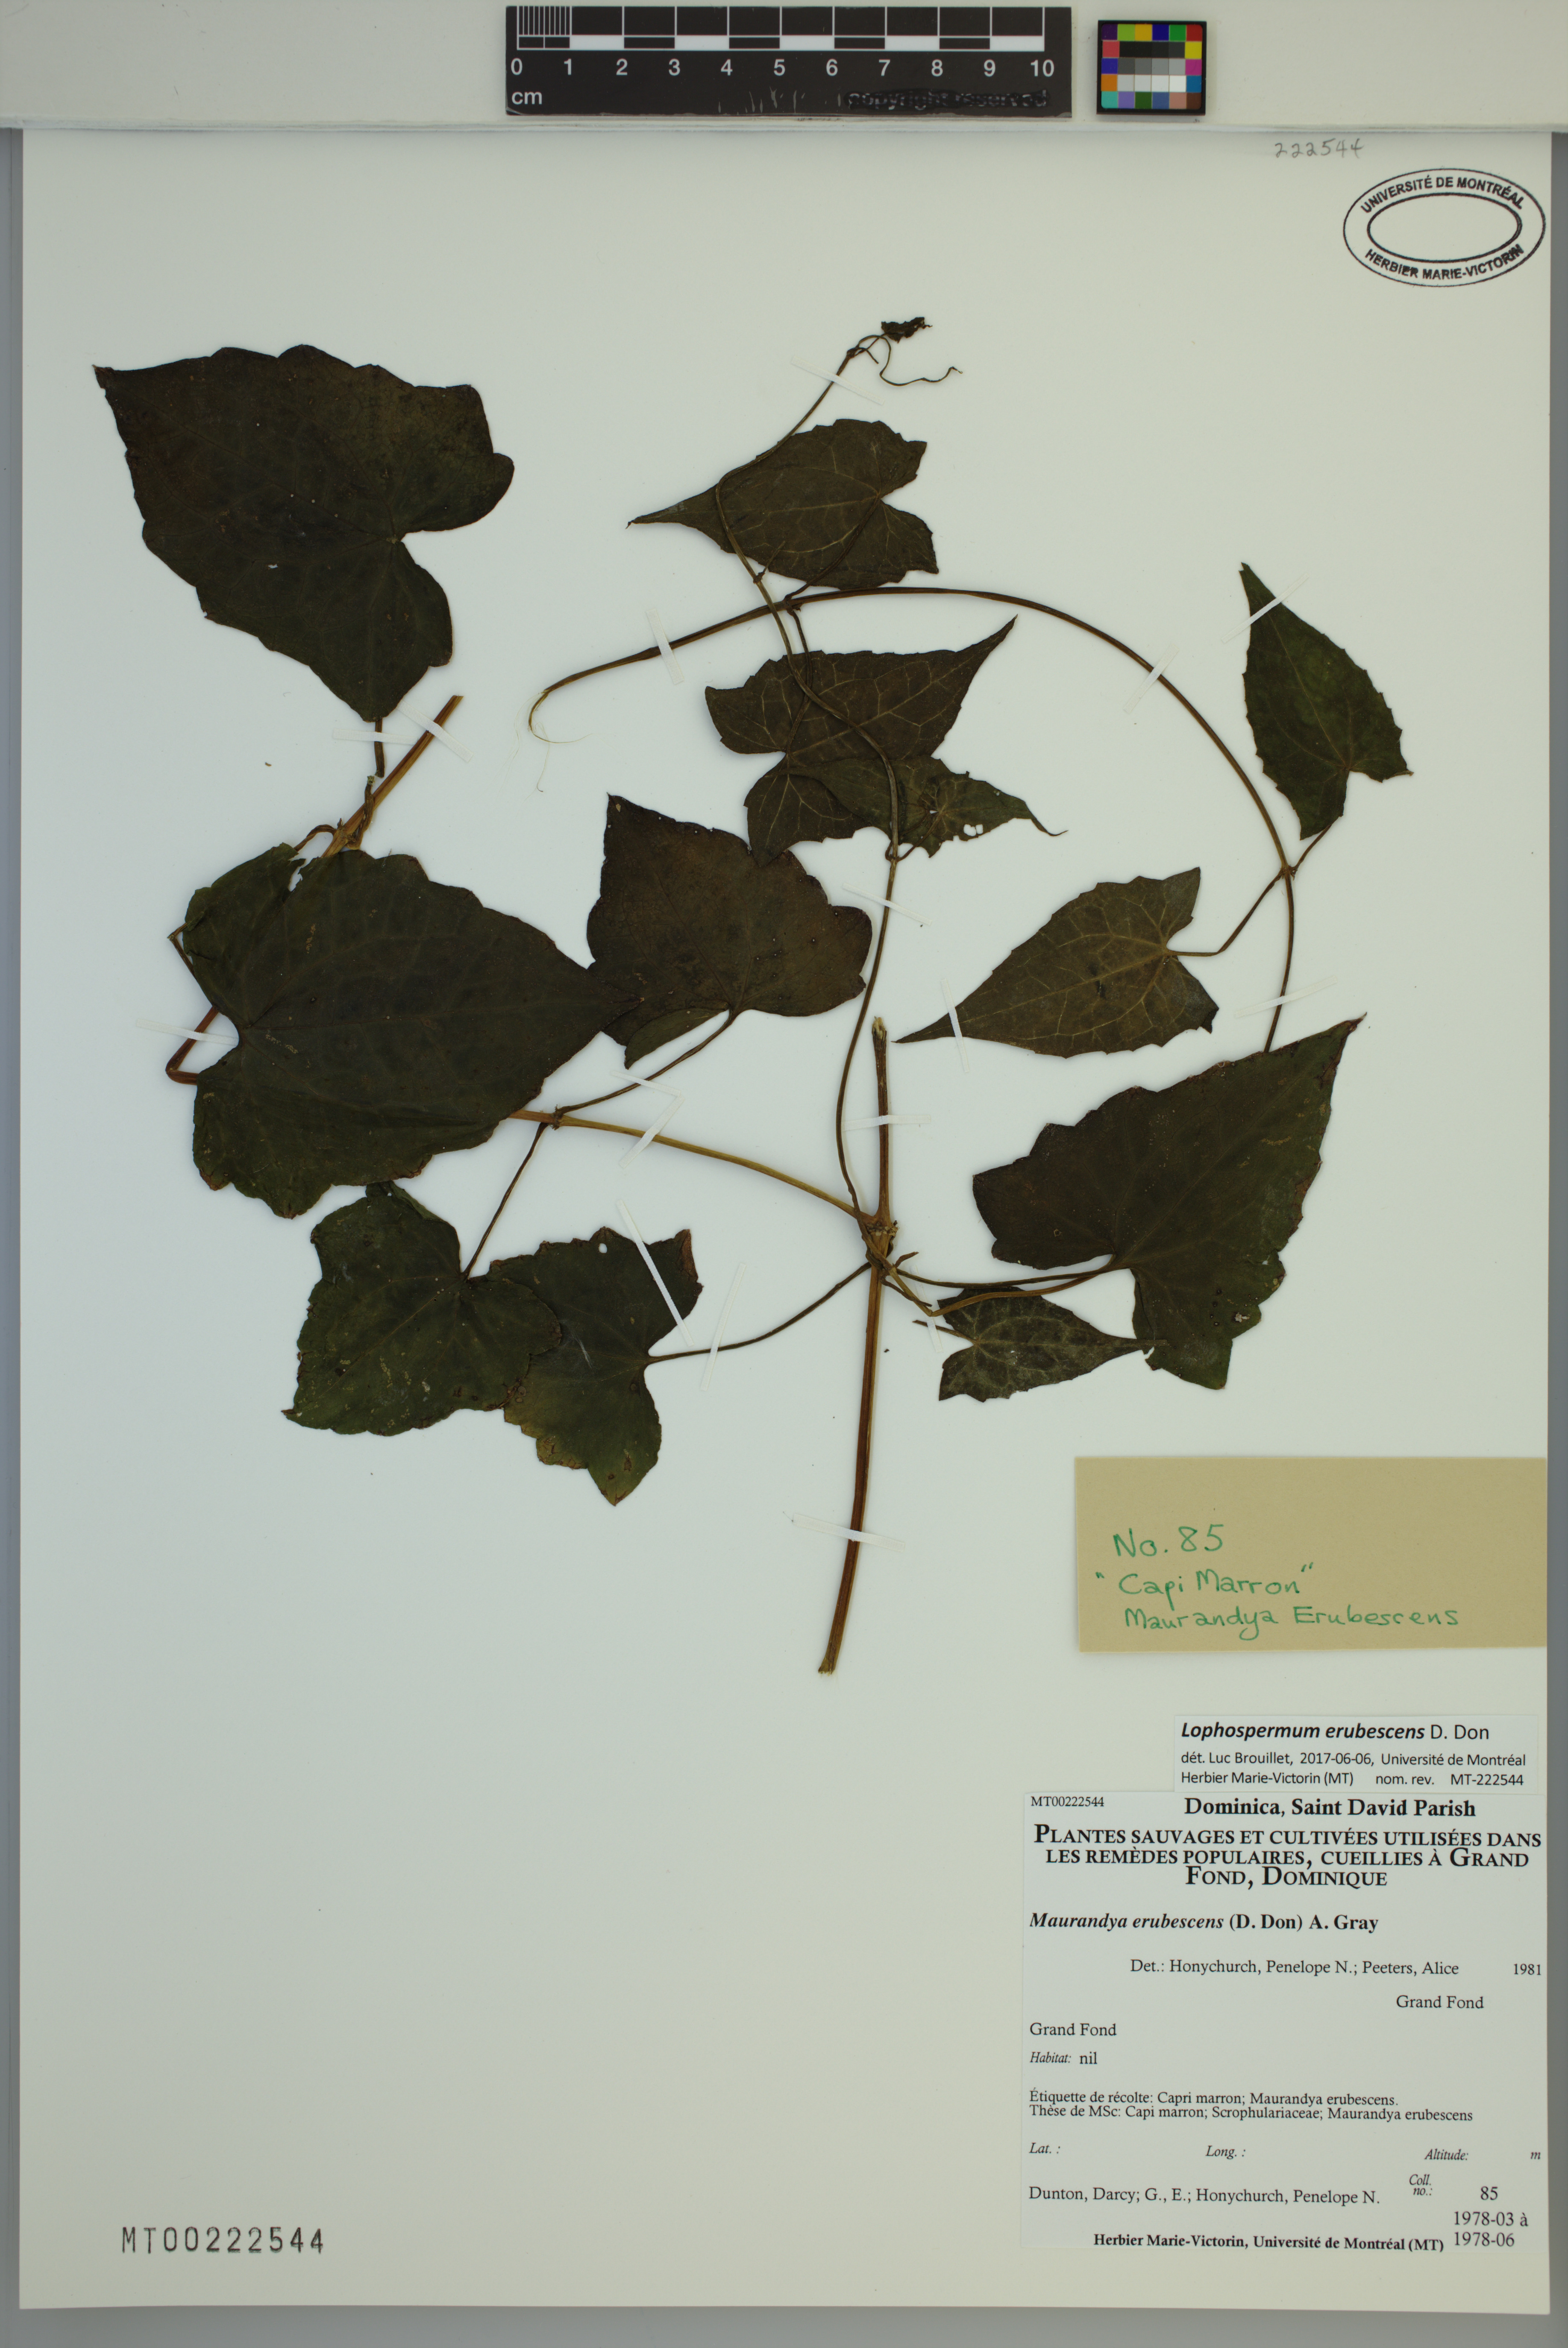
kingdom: Plantae
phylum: Tracheophyta
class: Magnoliopsida
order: Lamiales
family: Plantaginaceae
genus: Lophospermum
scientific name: Lophospermum erubescens
